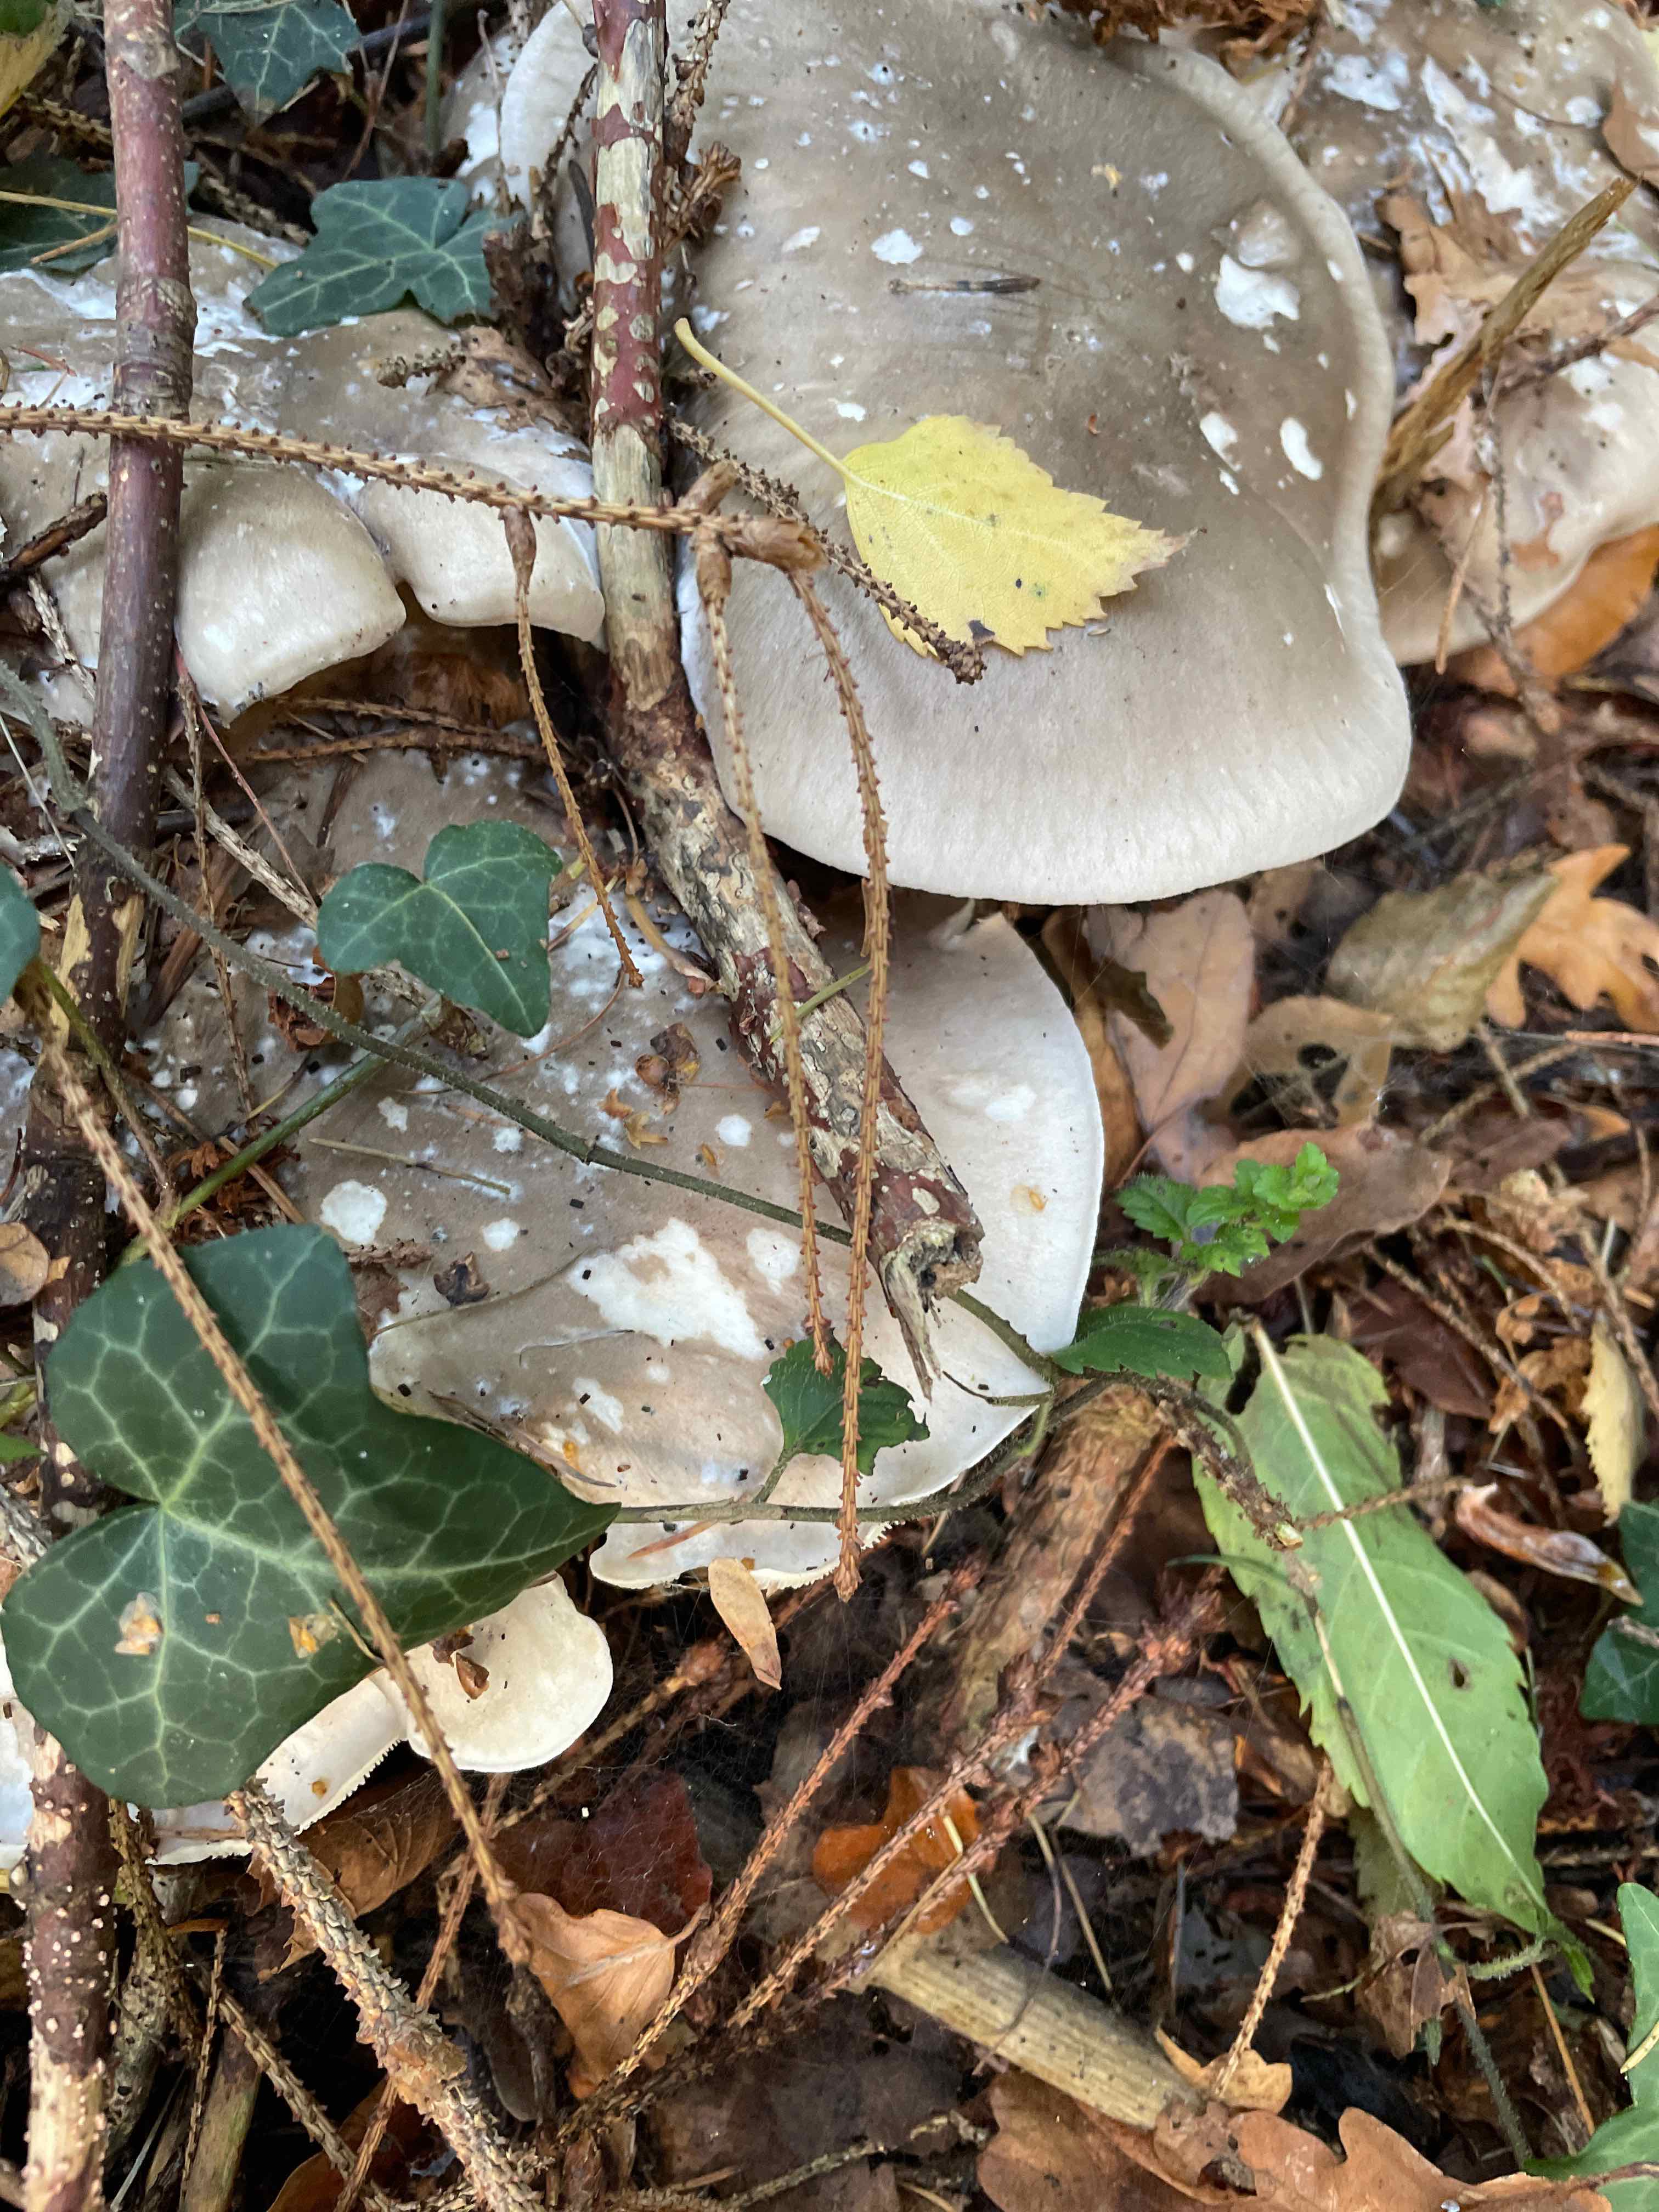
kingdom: Fungi
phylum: Basidiomycota
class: Agaricomycetes
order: Agaricales
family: Tricholomataceae
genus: Clitocybe
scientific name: Clitocybe nebularis
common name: tåge-tragthat
